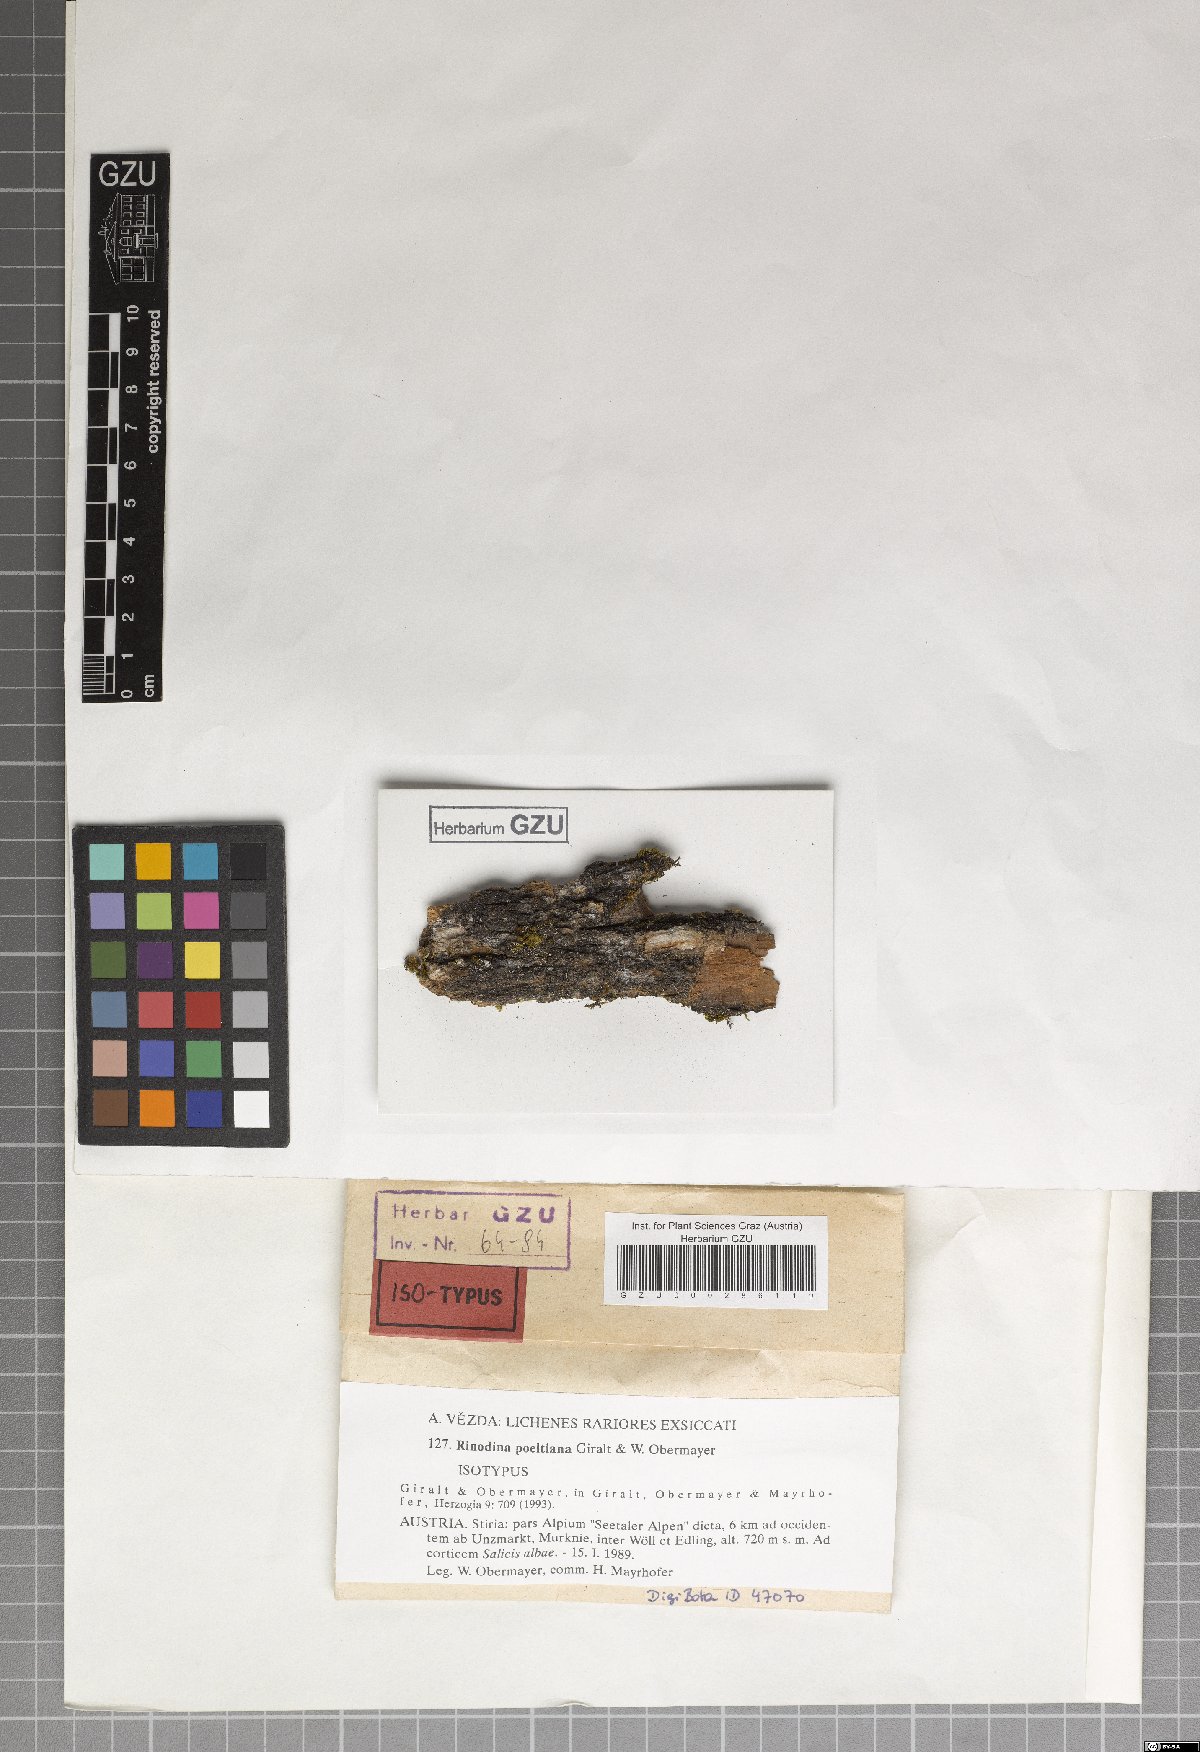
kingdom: Fungi
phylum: Ascomycota
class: Lecanoromycetes
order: Caliciales
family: Physciaceae
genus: Rinodina
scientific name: Rinodina poeltiana
